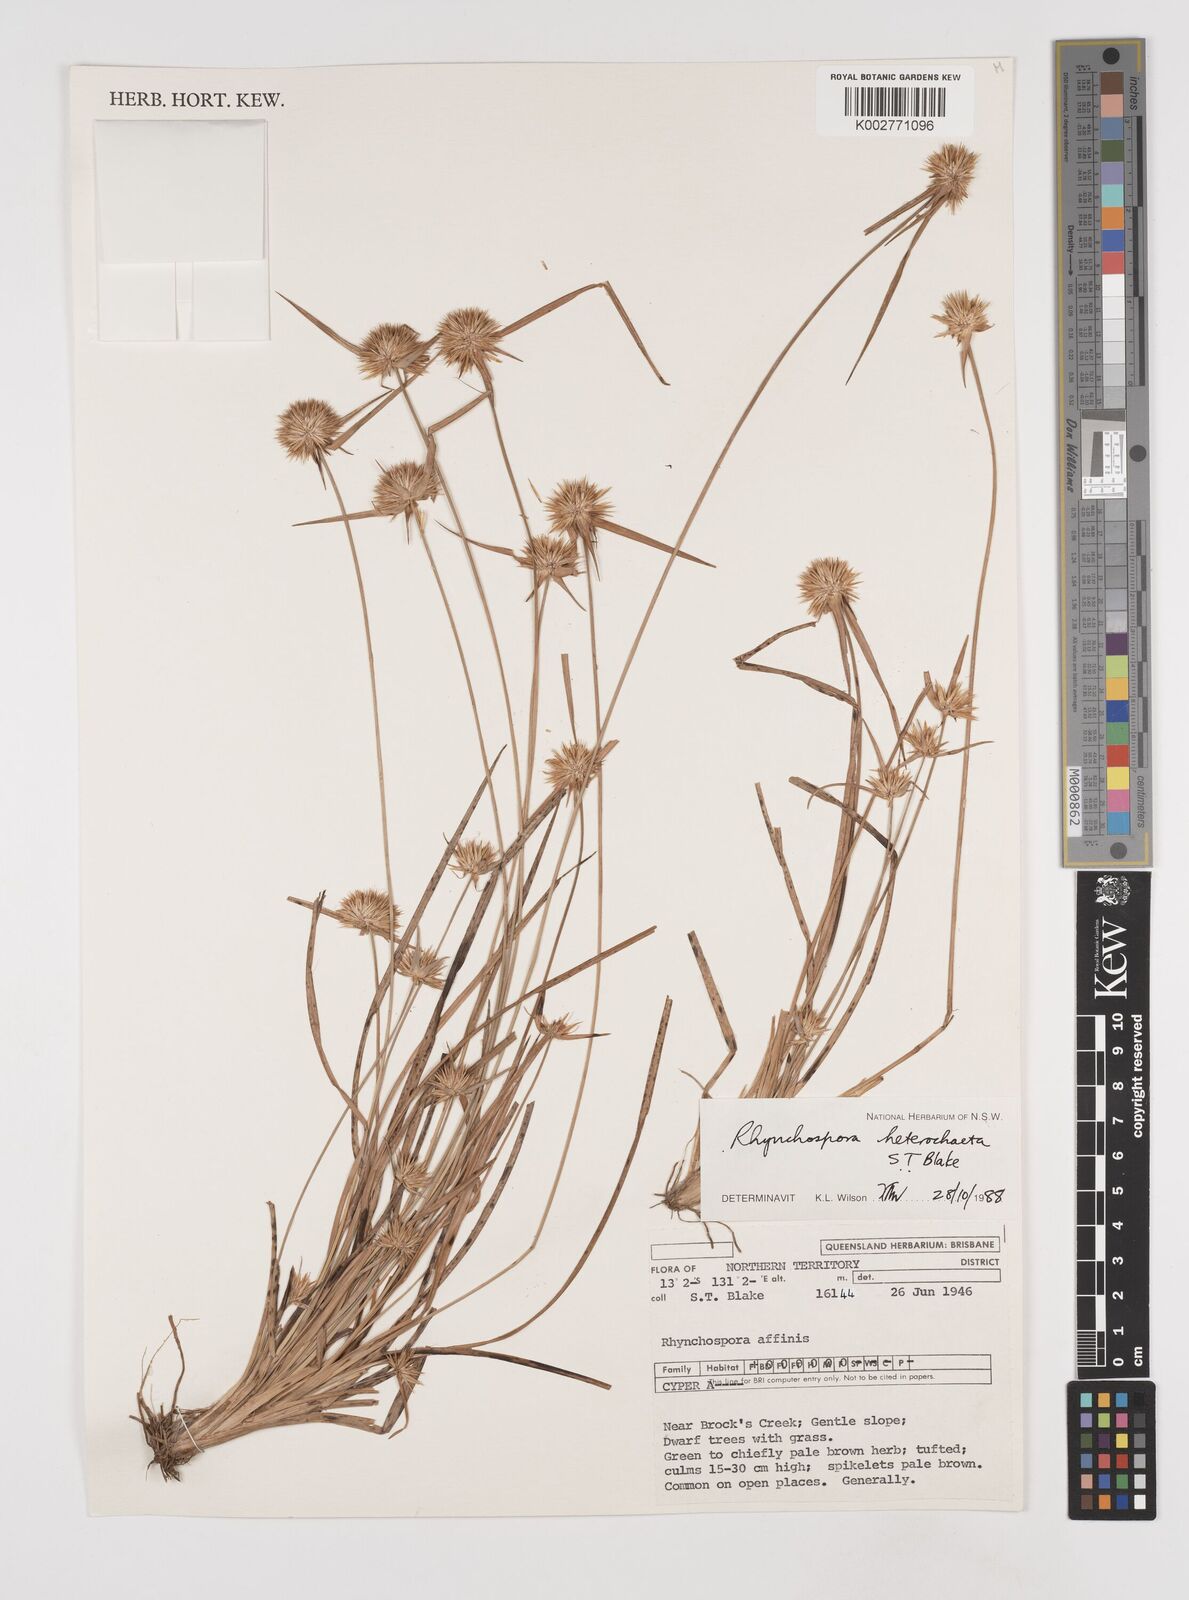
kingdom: Plantae
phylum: Tracheophyta
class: Liliopsida
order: Poales
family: Cyperaceae
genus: Rhynchospora
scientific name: Rhynchospora heterochaeta
